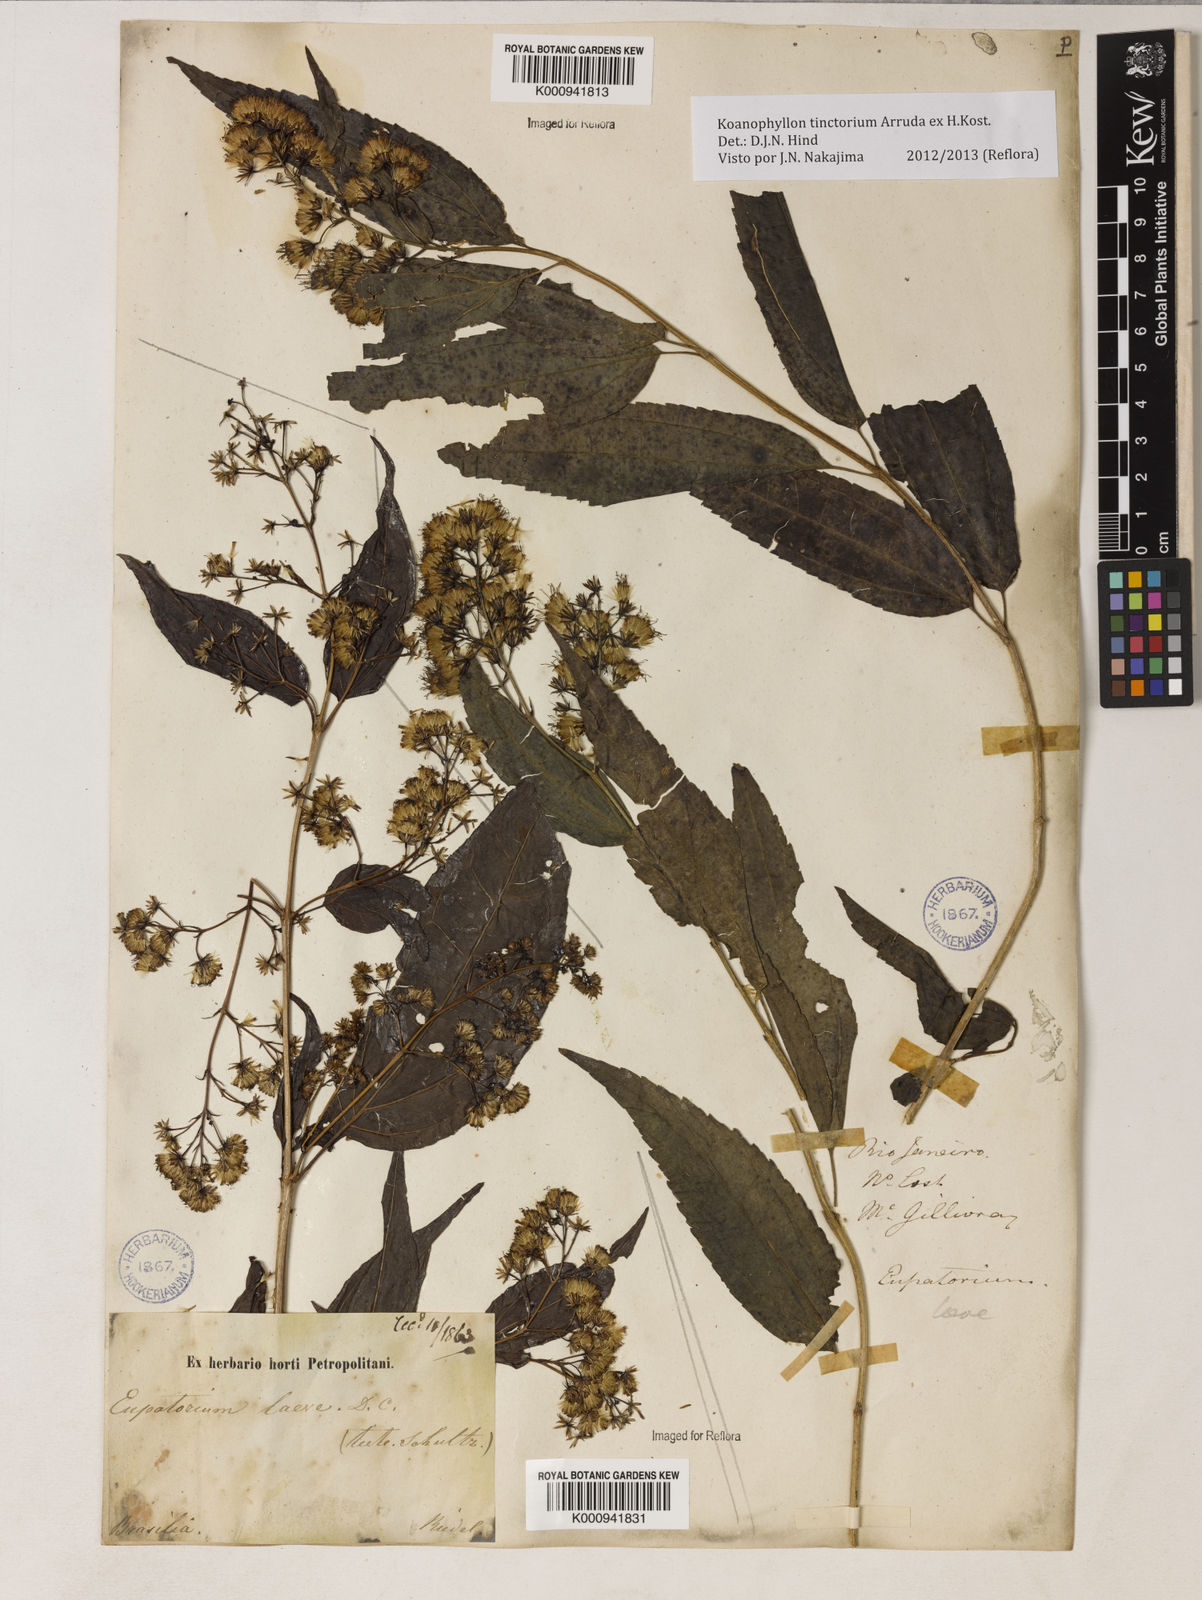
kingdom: Plantae
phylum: Tracheophyta
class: Magnoliopsida
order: Asterales
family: Asteraceae
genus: Koanophyllon
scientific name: Koanophyllon
